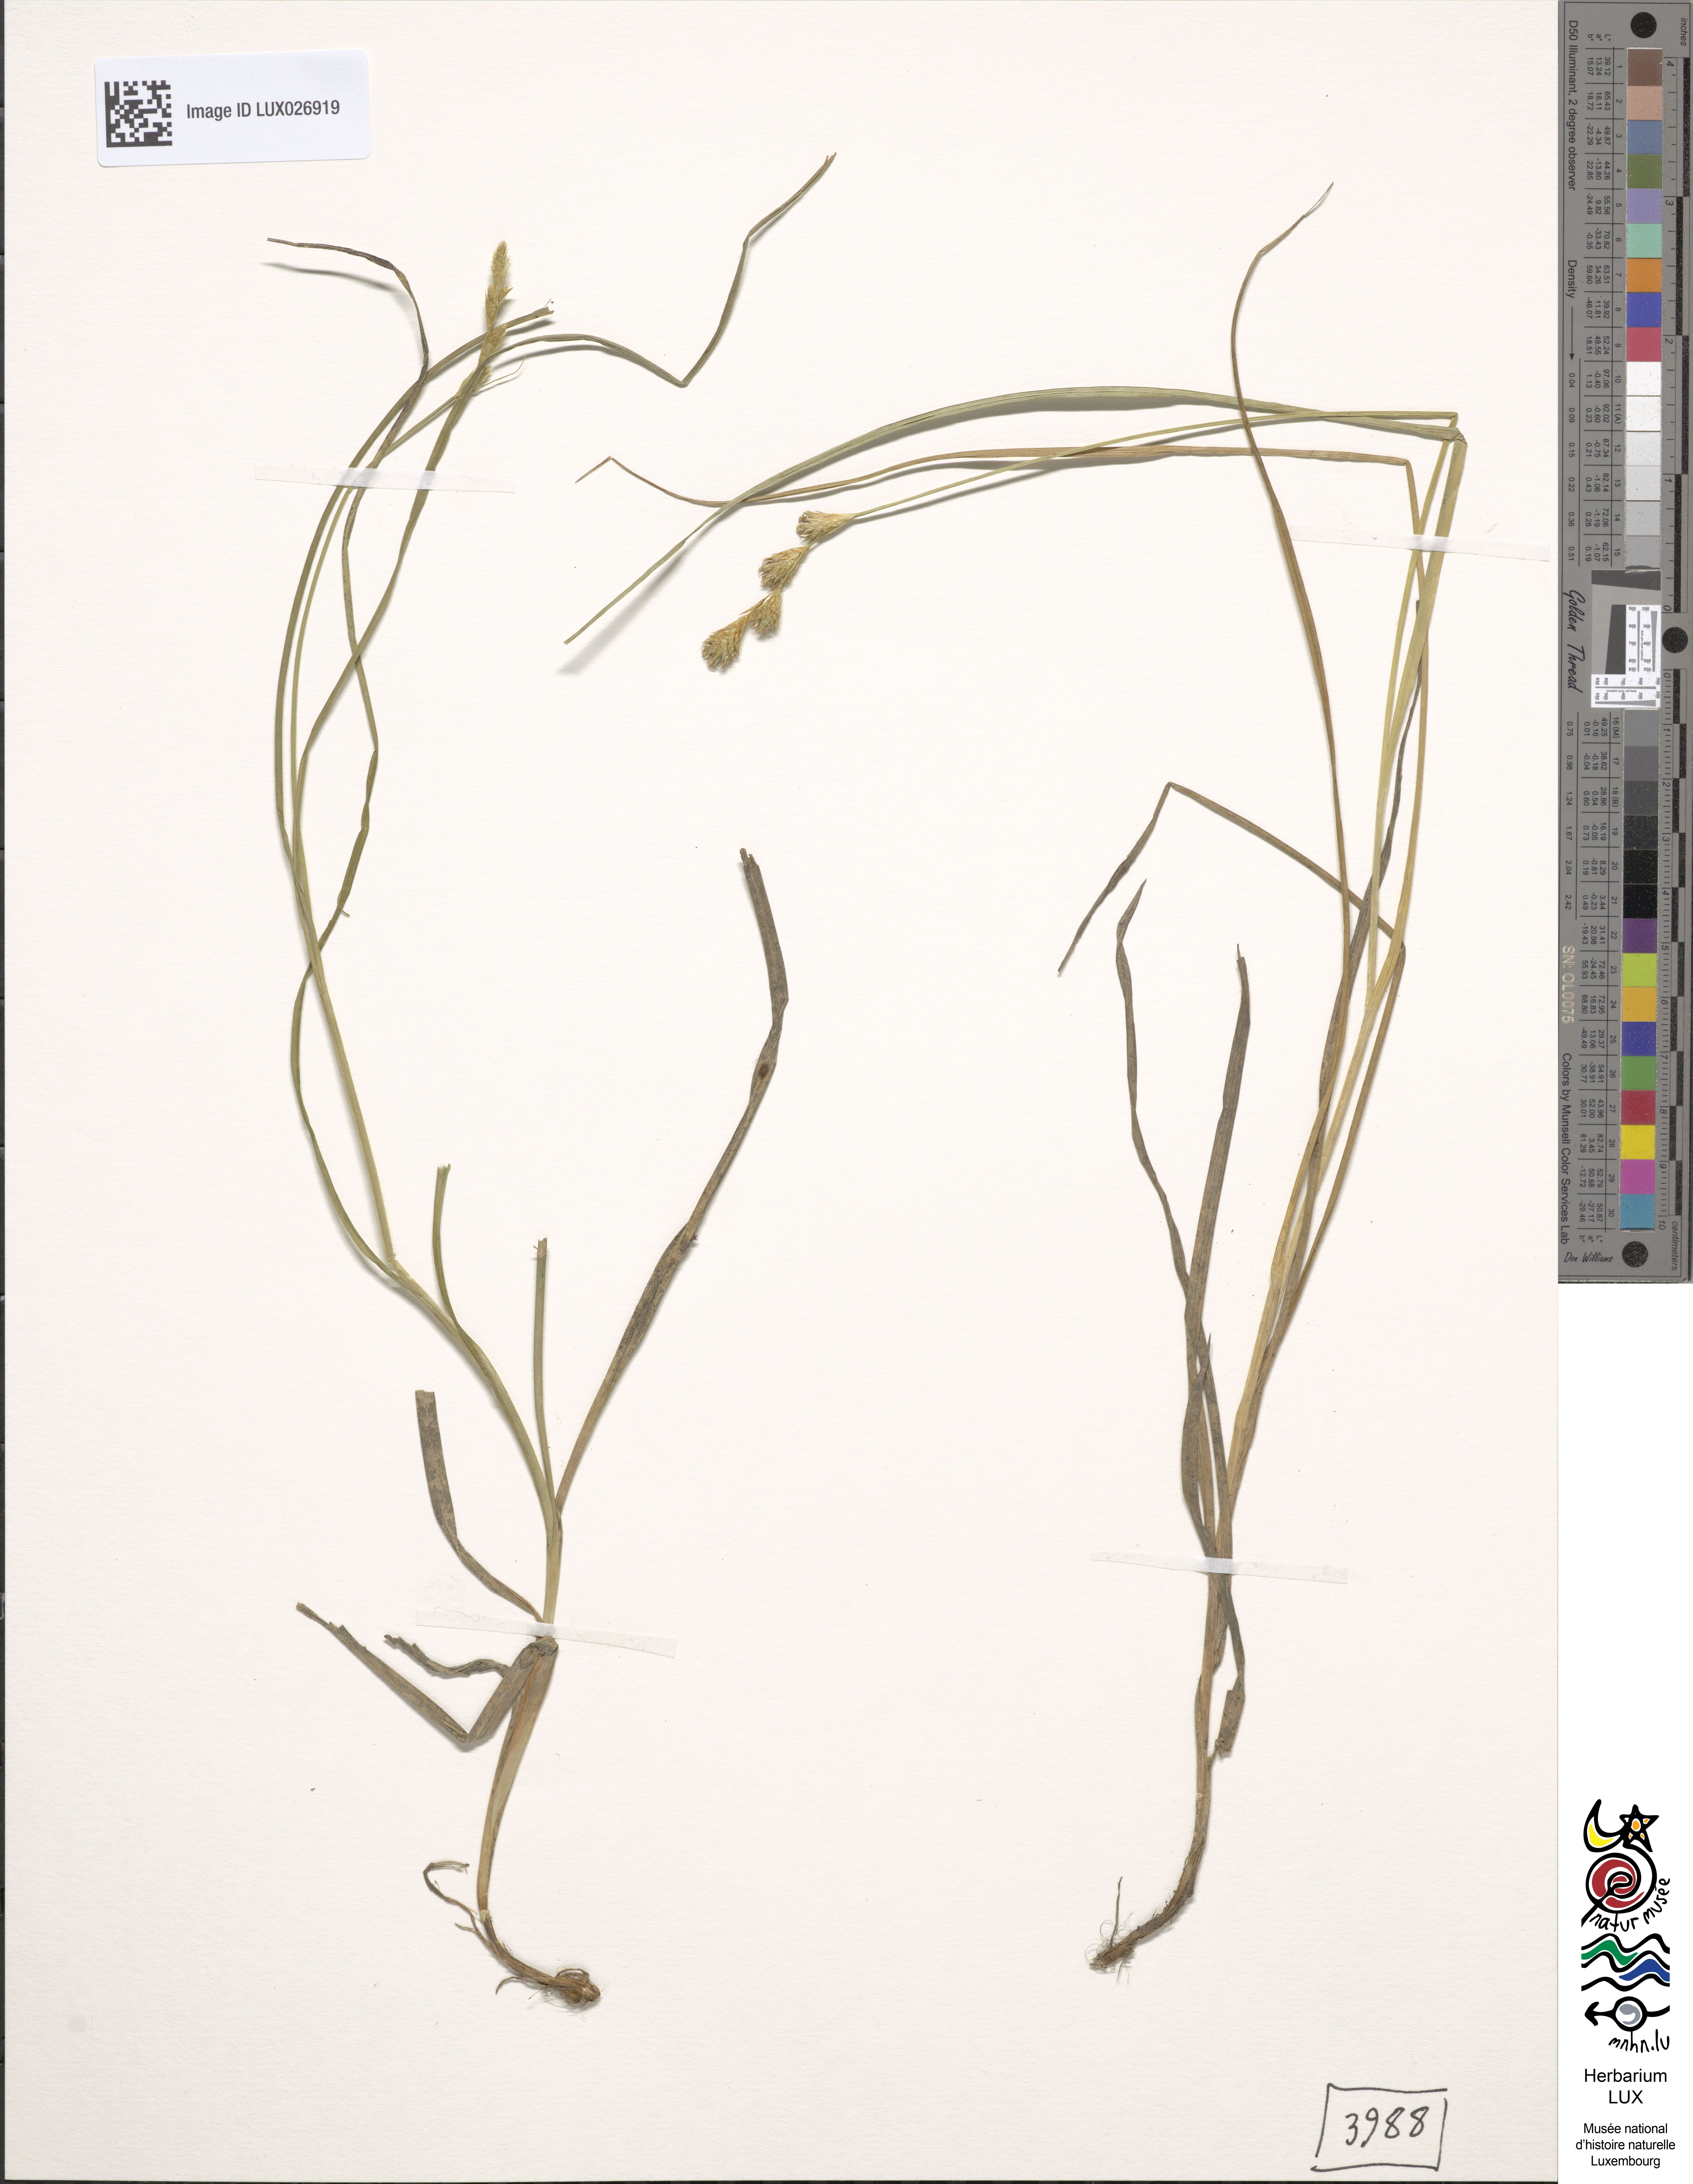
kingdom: Plantae
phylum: Tracheophyta
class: Liliopsida
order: Poales
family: Cyperaceae
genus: Carex
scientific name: Carex leporina
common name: Oval sedge
